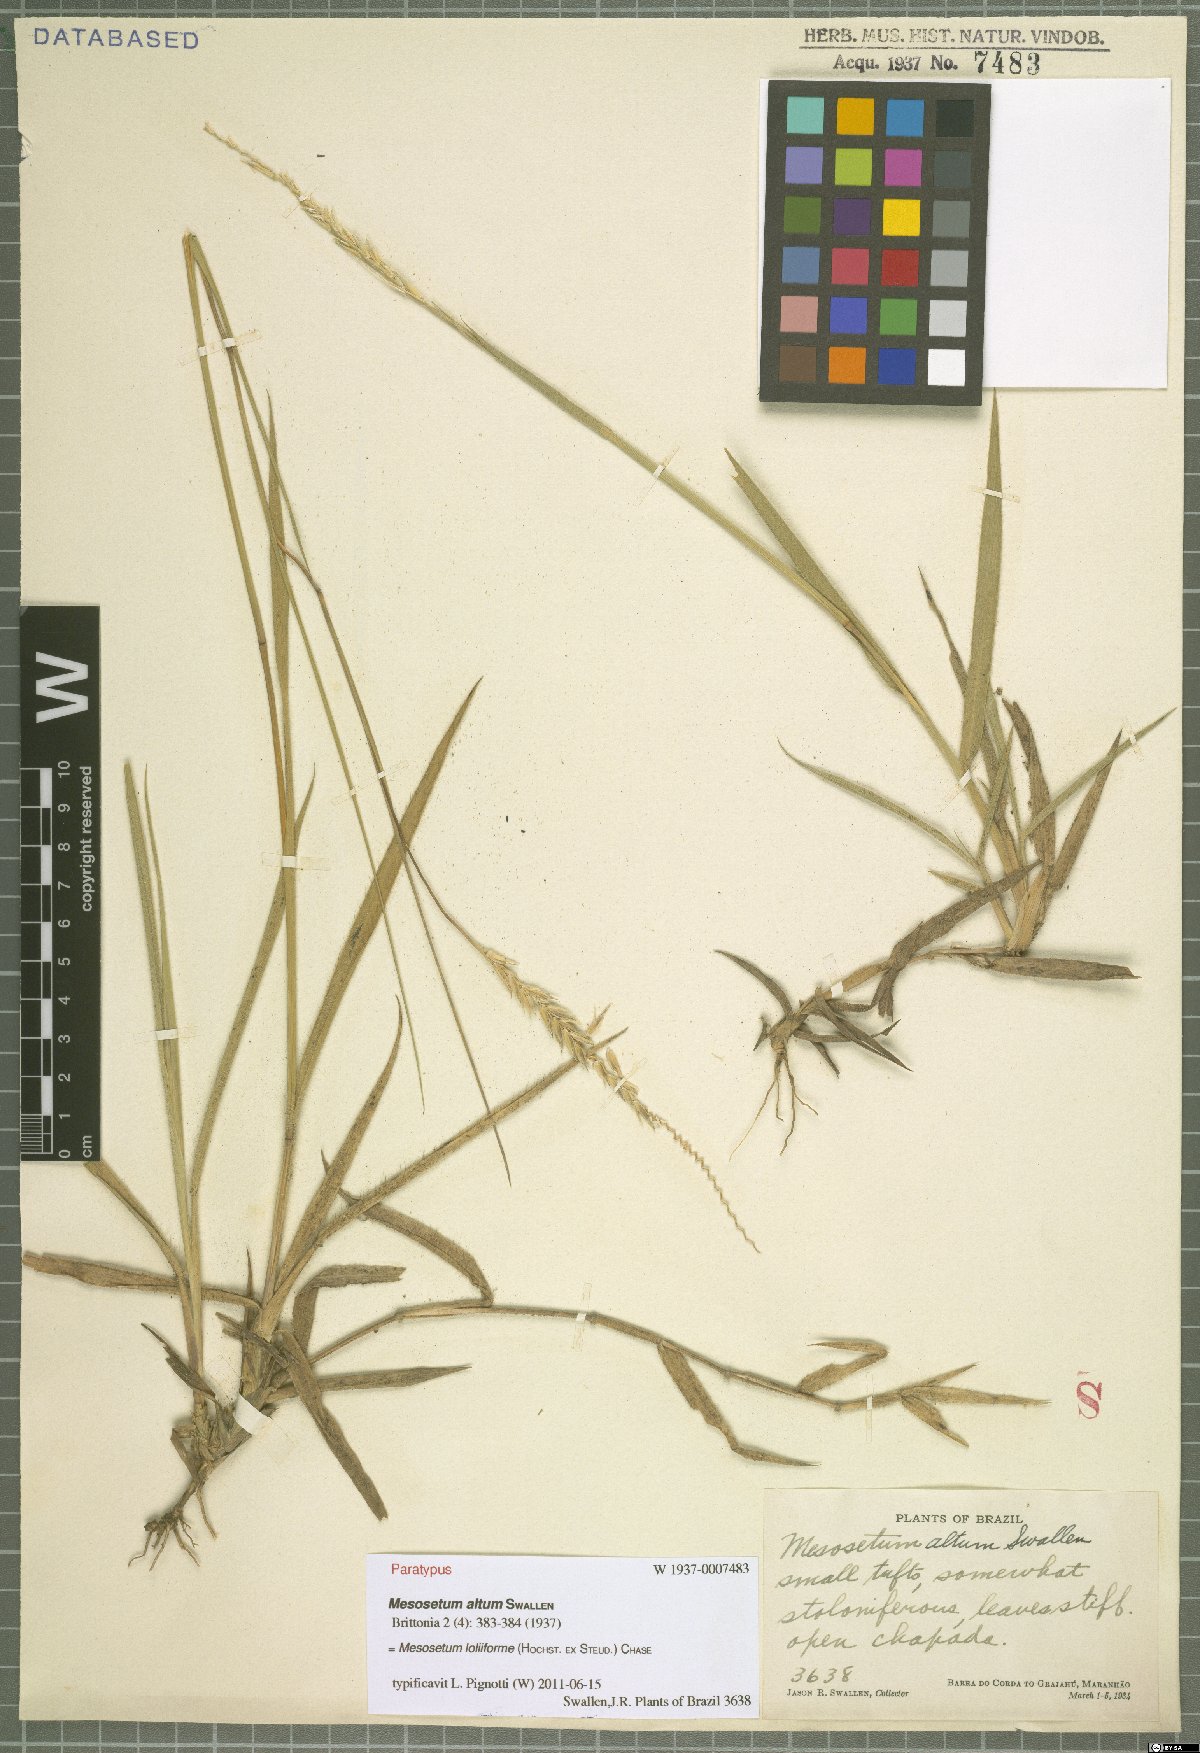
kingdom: Plantae
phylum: Tracheophyta
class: Liliopsida
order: Poales
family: Poaceae
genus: Mesosetum
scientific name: Mesosetum loliiforme
